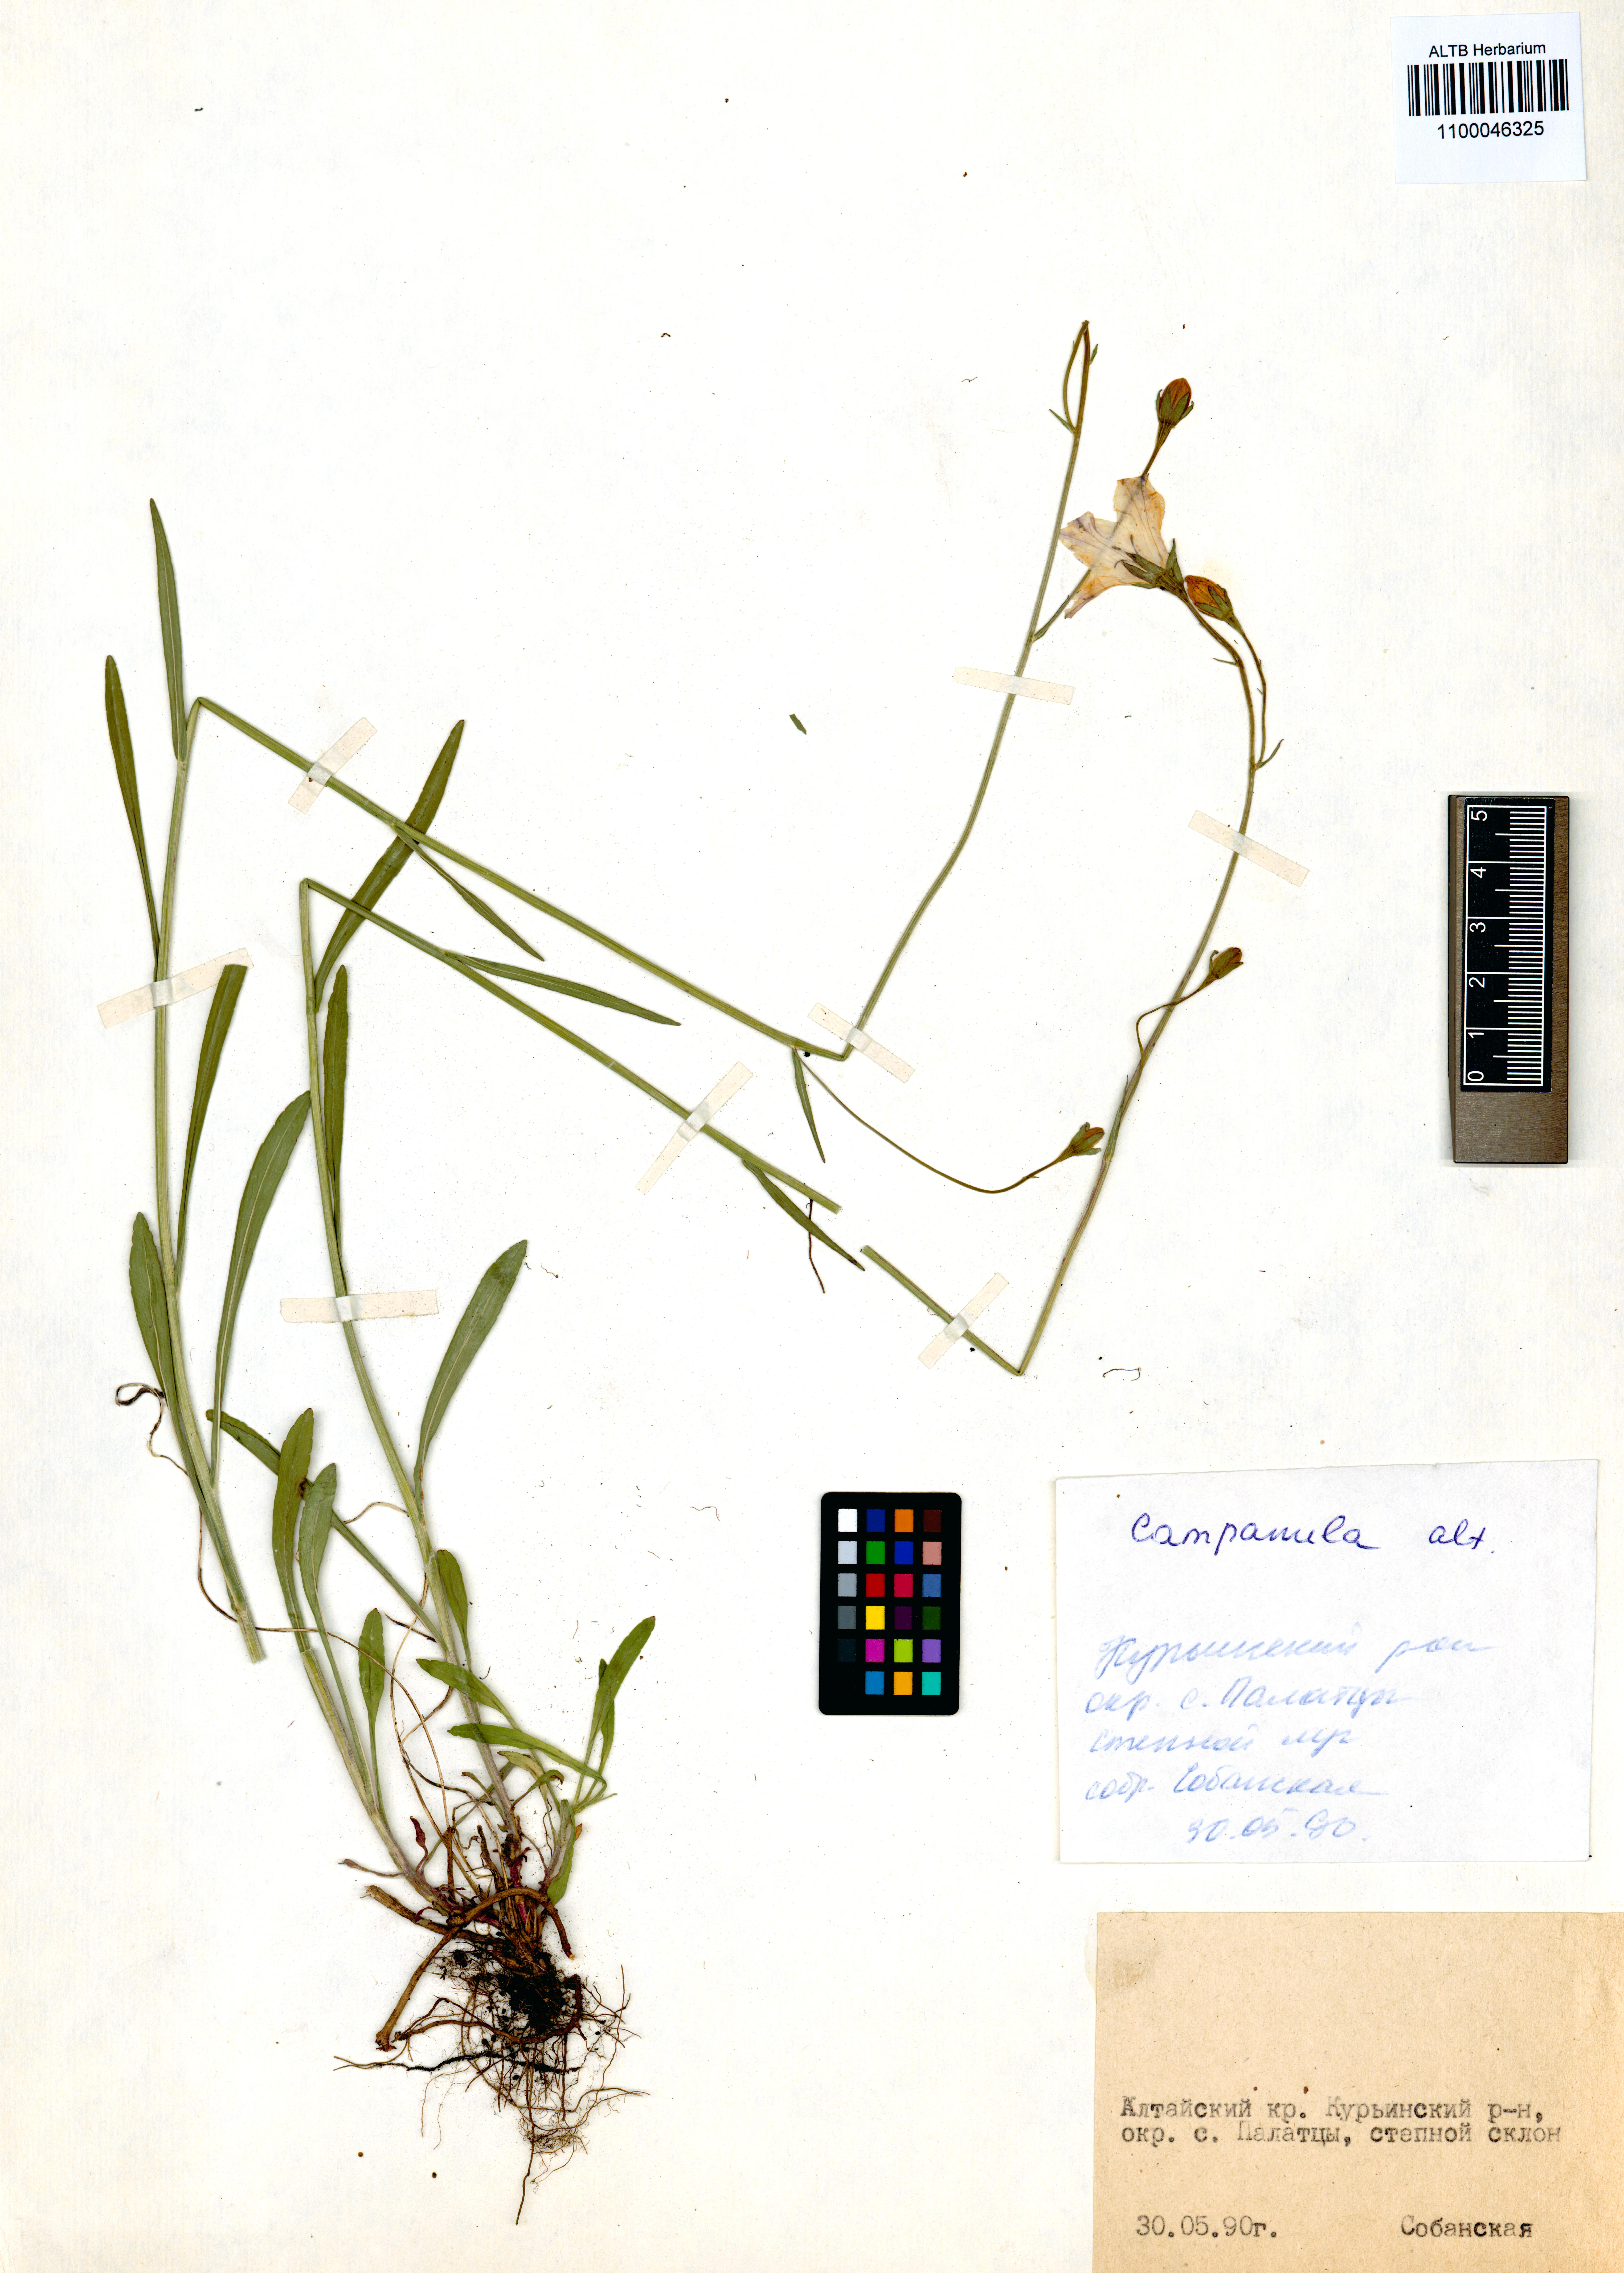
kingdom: Plantae
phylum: Tracheophyta
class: Magnoliopsida
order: Asterales
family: Campanulaceae
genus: Campanula
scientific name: Campanula stevenii
